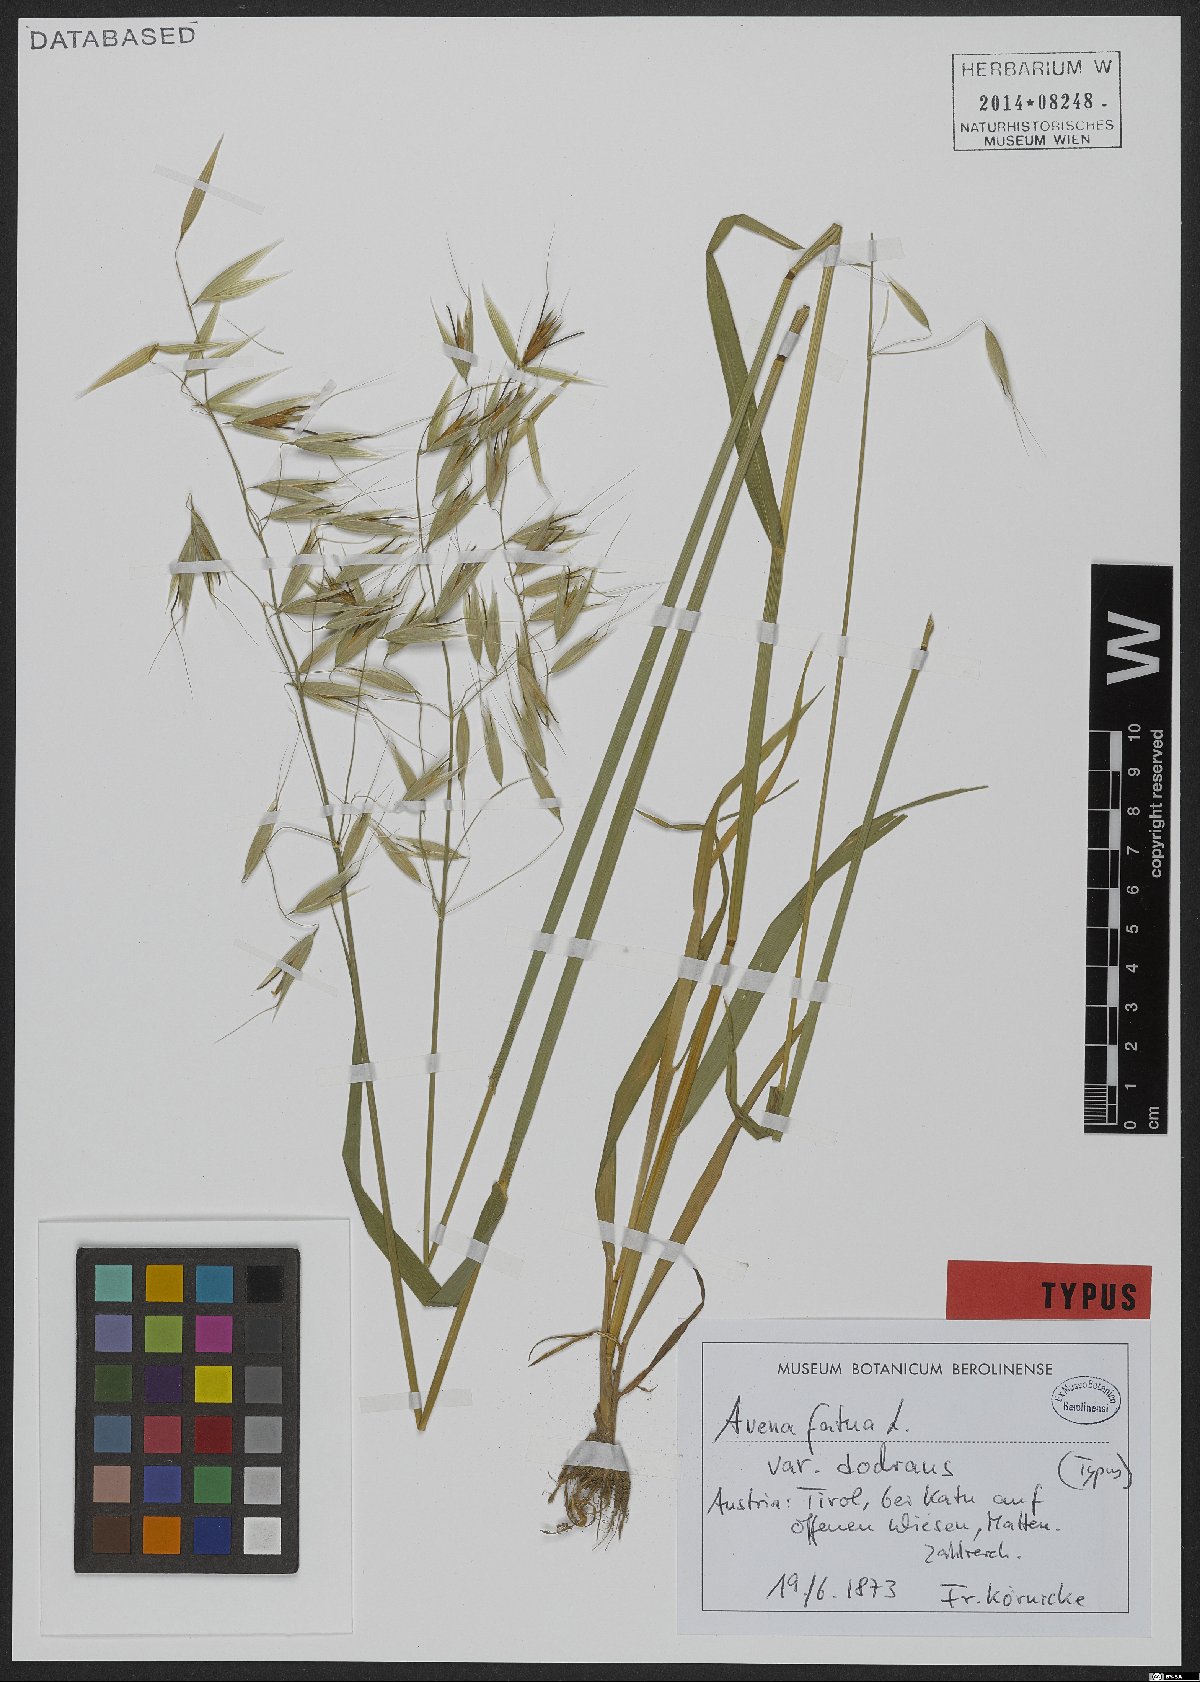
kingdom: Plantae
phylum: Tracheophyta
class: Liliopsida
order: Poales
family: Poaceae
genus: Avena
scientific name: Avena fatua
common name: Wild oat
